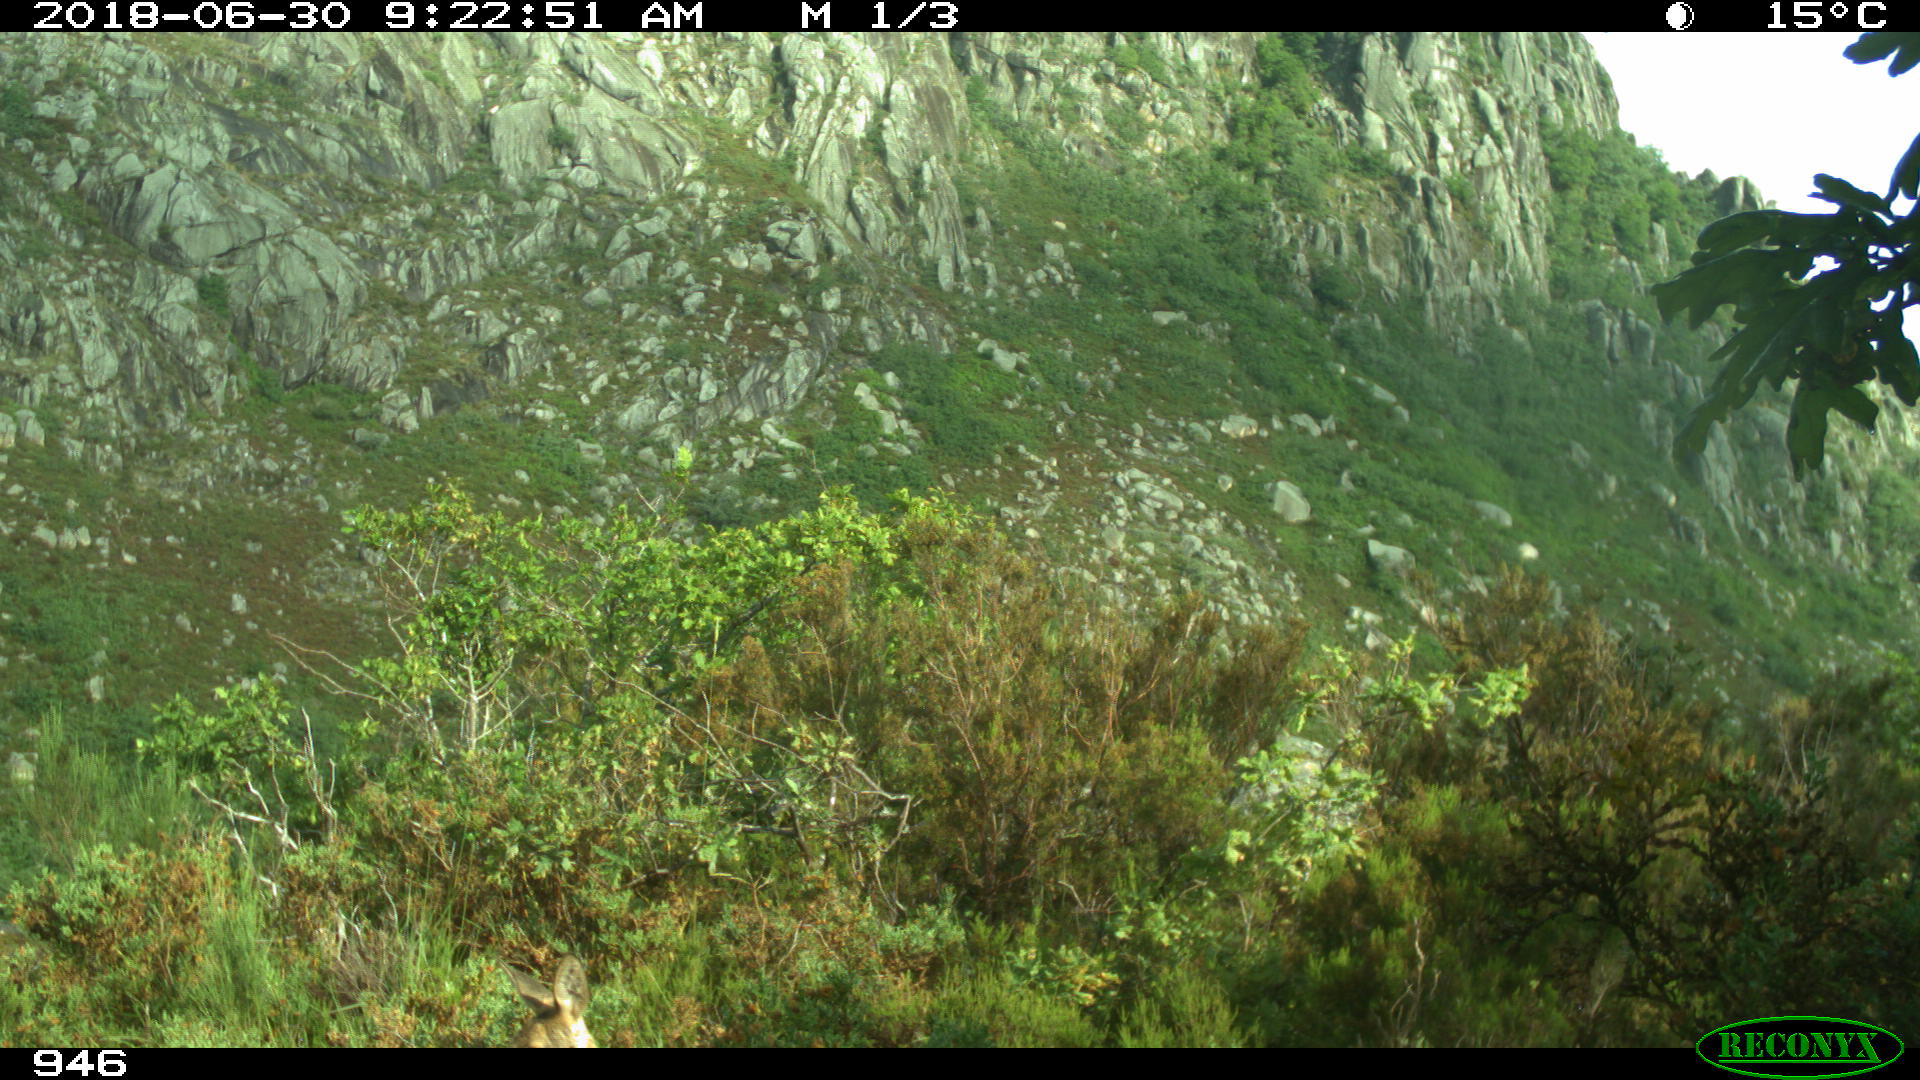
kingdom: Animalia
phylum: Chordata
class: Mammalia
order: Artiodactyla
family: Cervidae
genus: Capreolus
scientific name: Capreolus capreolus
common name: Western roe deer
